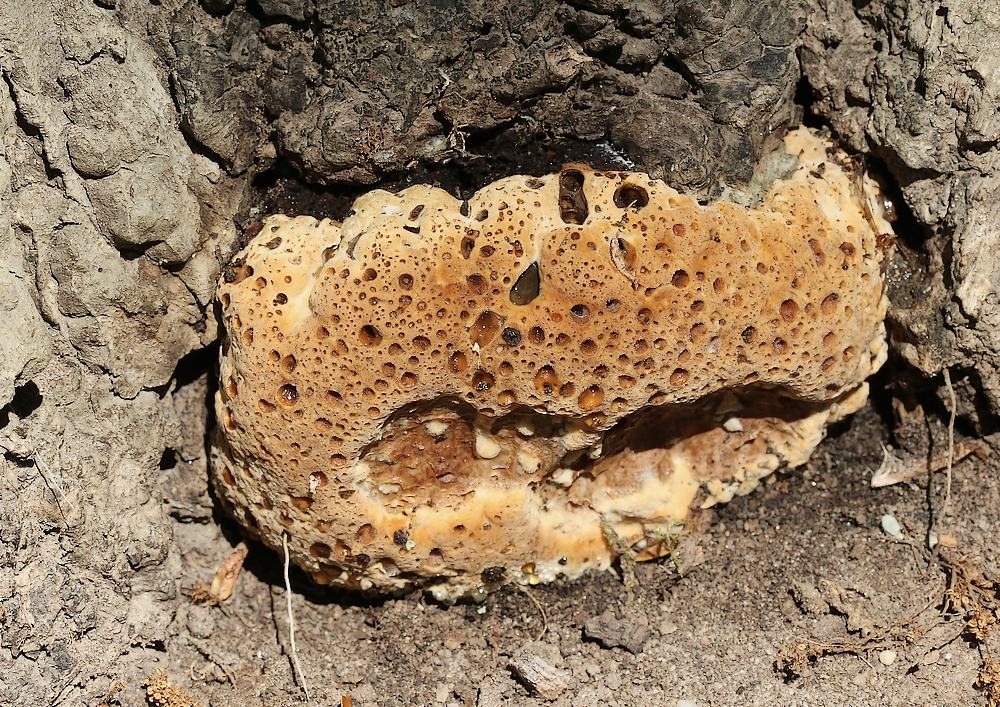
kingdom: Fungi
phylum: Basidiomycota
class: Agaricomycetes
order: Hymenochaetales
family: Hymenochaetaceae
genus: Pseudoinonotus
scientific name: Pseudoinonotus dryadeus
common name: ege-spejlporesvamp
